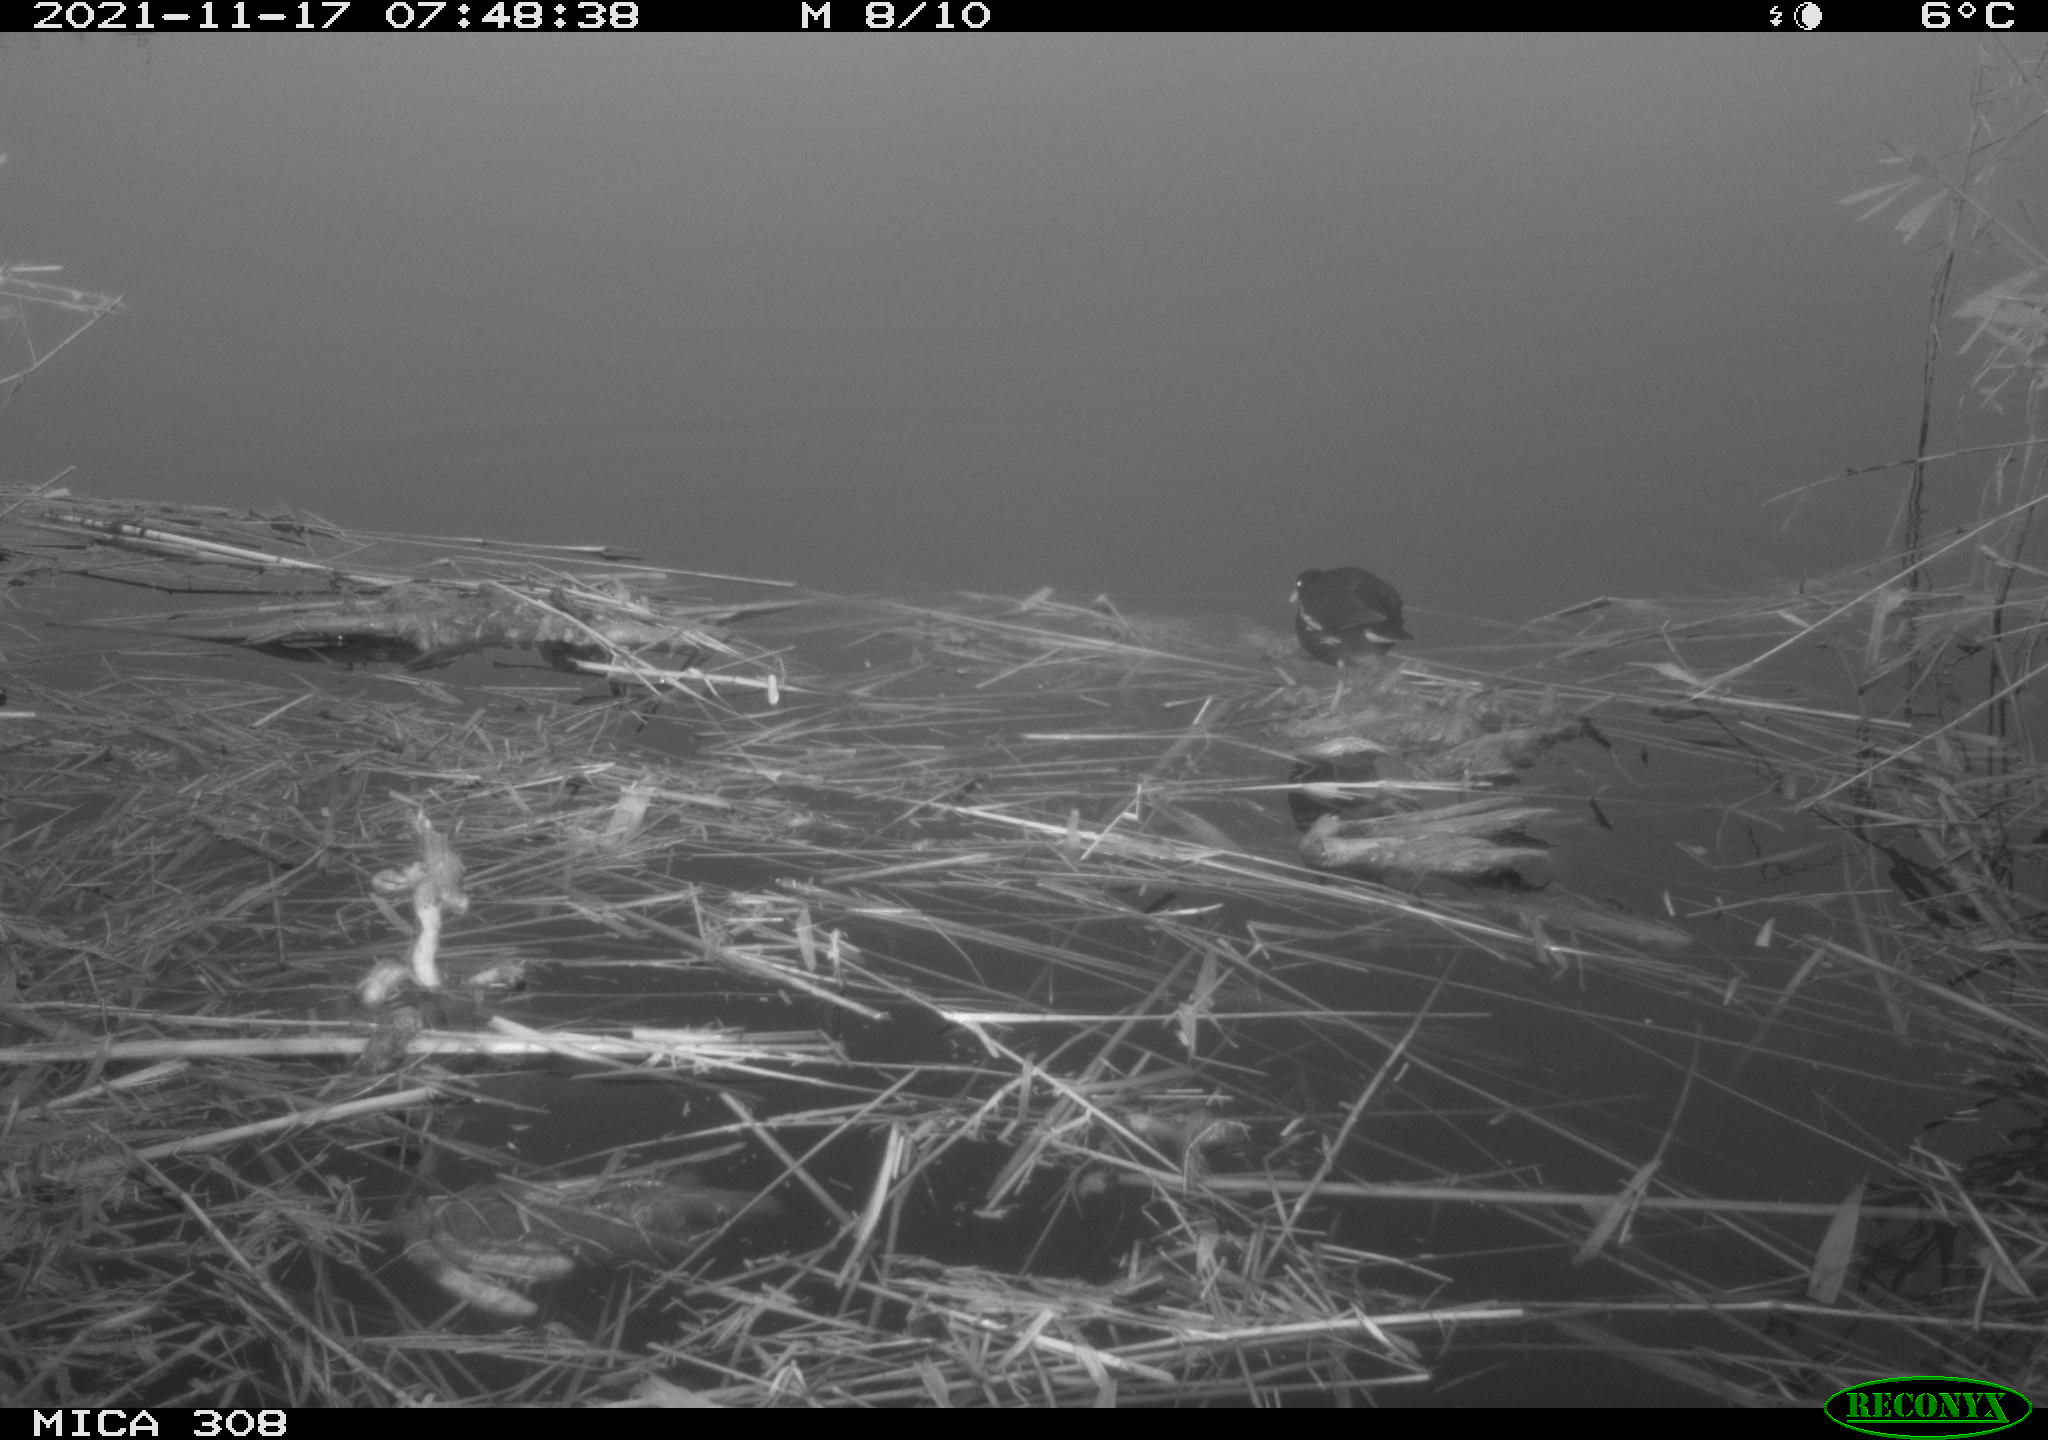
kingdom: Animalia
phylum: Chordata
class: Aves
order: Gruiformes
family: Rallidae
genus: Gallinula
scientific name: Gallinula chloropus
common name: Common moorhen
